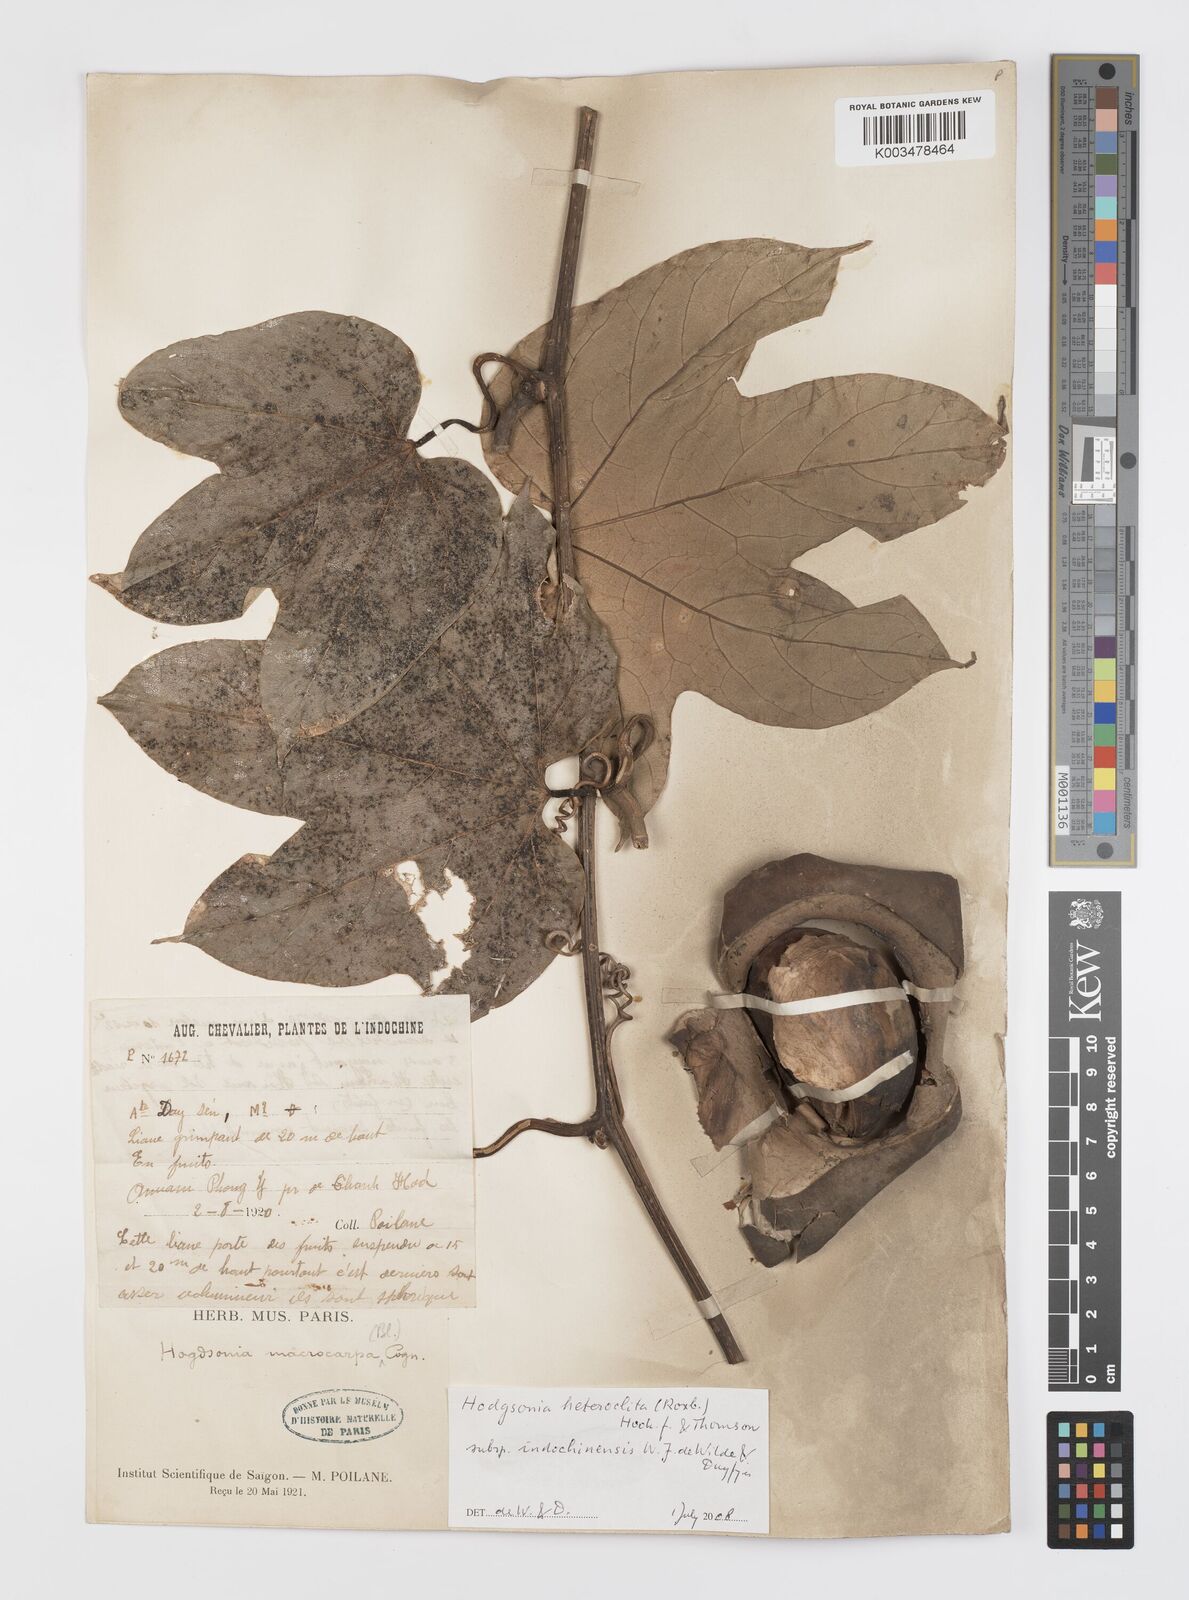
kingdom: Plantae
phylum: Tracheophyta
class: Magnoliopsida
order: Cucurbitales
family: Cucurbitaceae
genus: Hodgsonia
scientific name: Hodgsonia macrocarpa
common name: Chinese lardfruit
